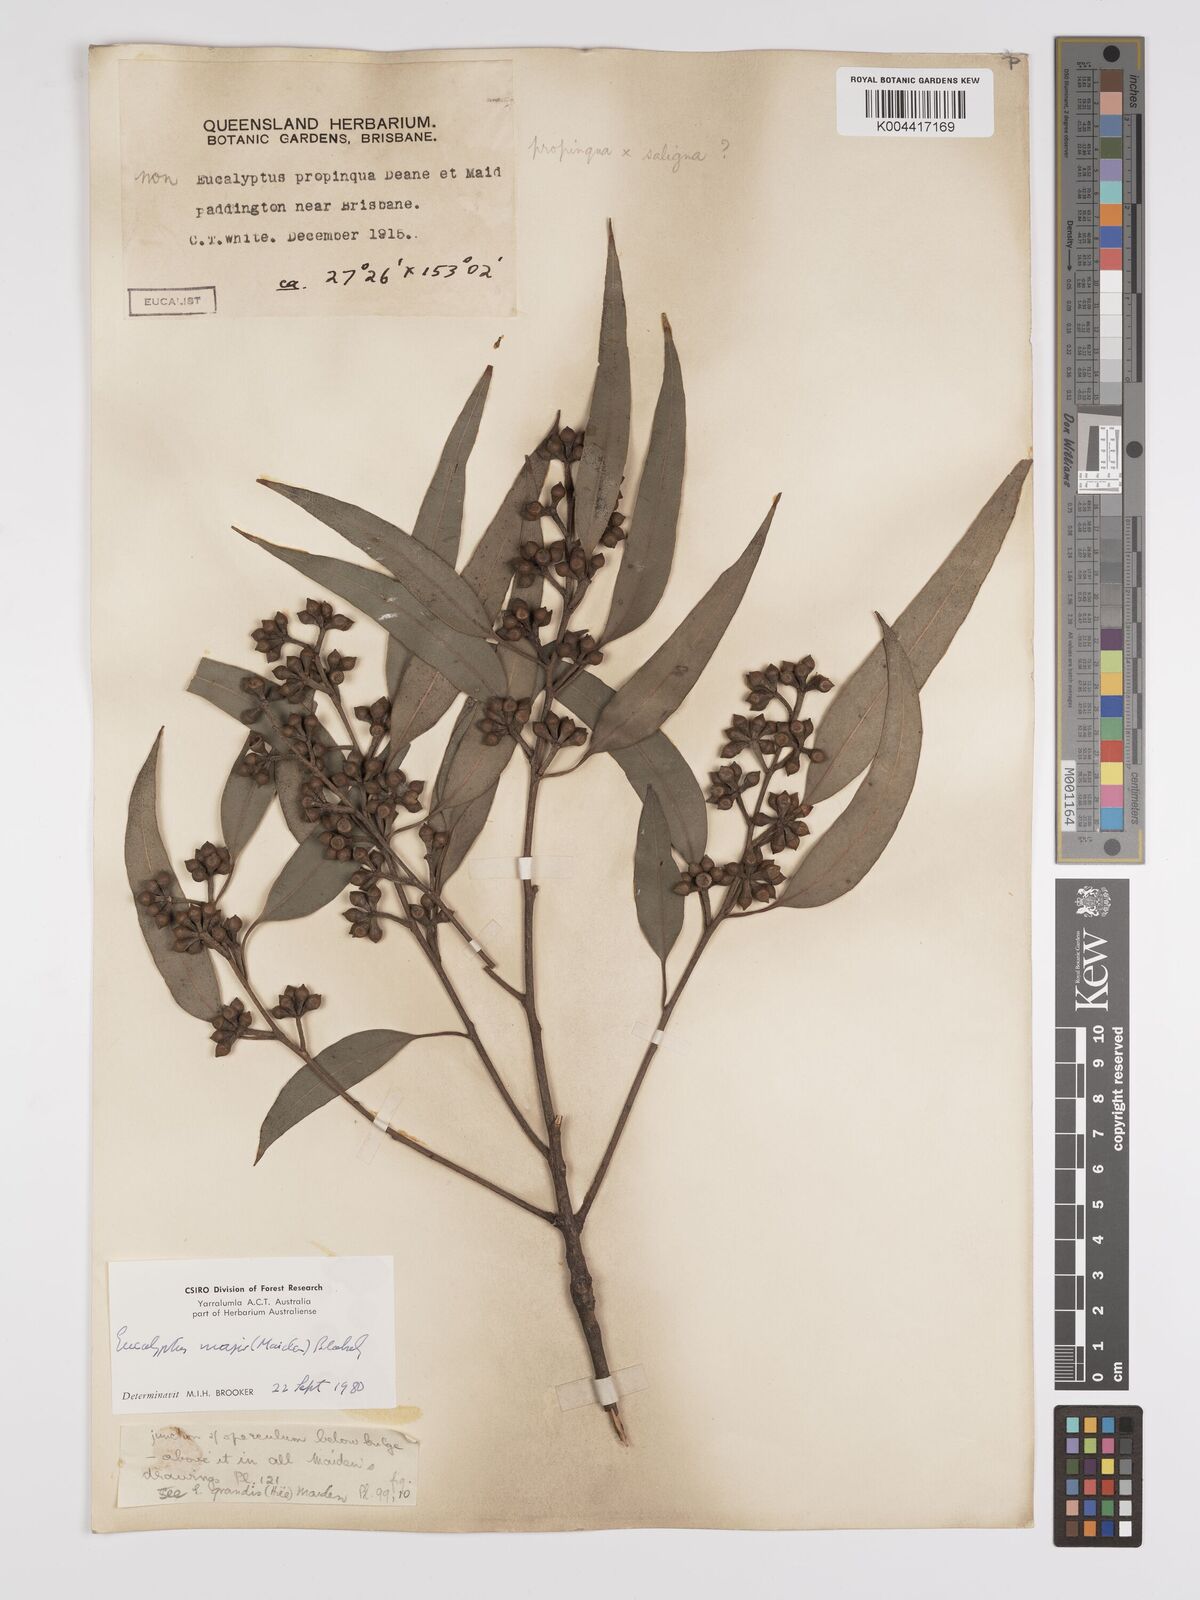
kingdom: Plantae
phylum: Tracheophyta
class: Magnoliopsida
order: Myrtales
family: Myrtaceae
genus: Eucalyptus
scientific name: Eucalyptus major
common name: Queensland grey gum
